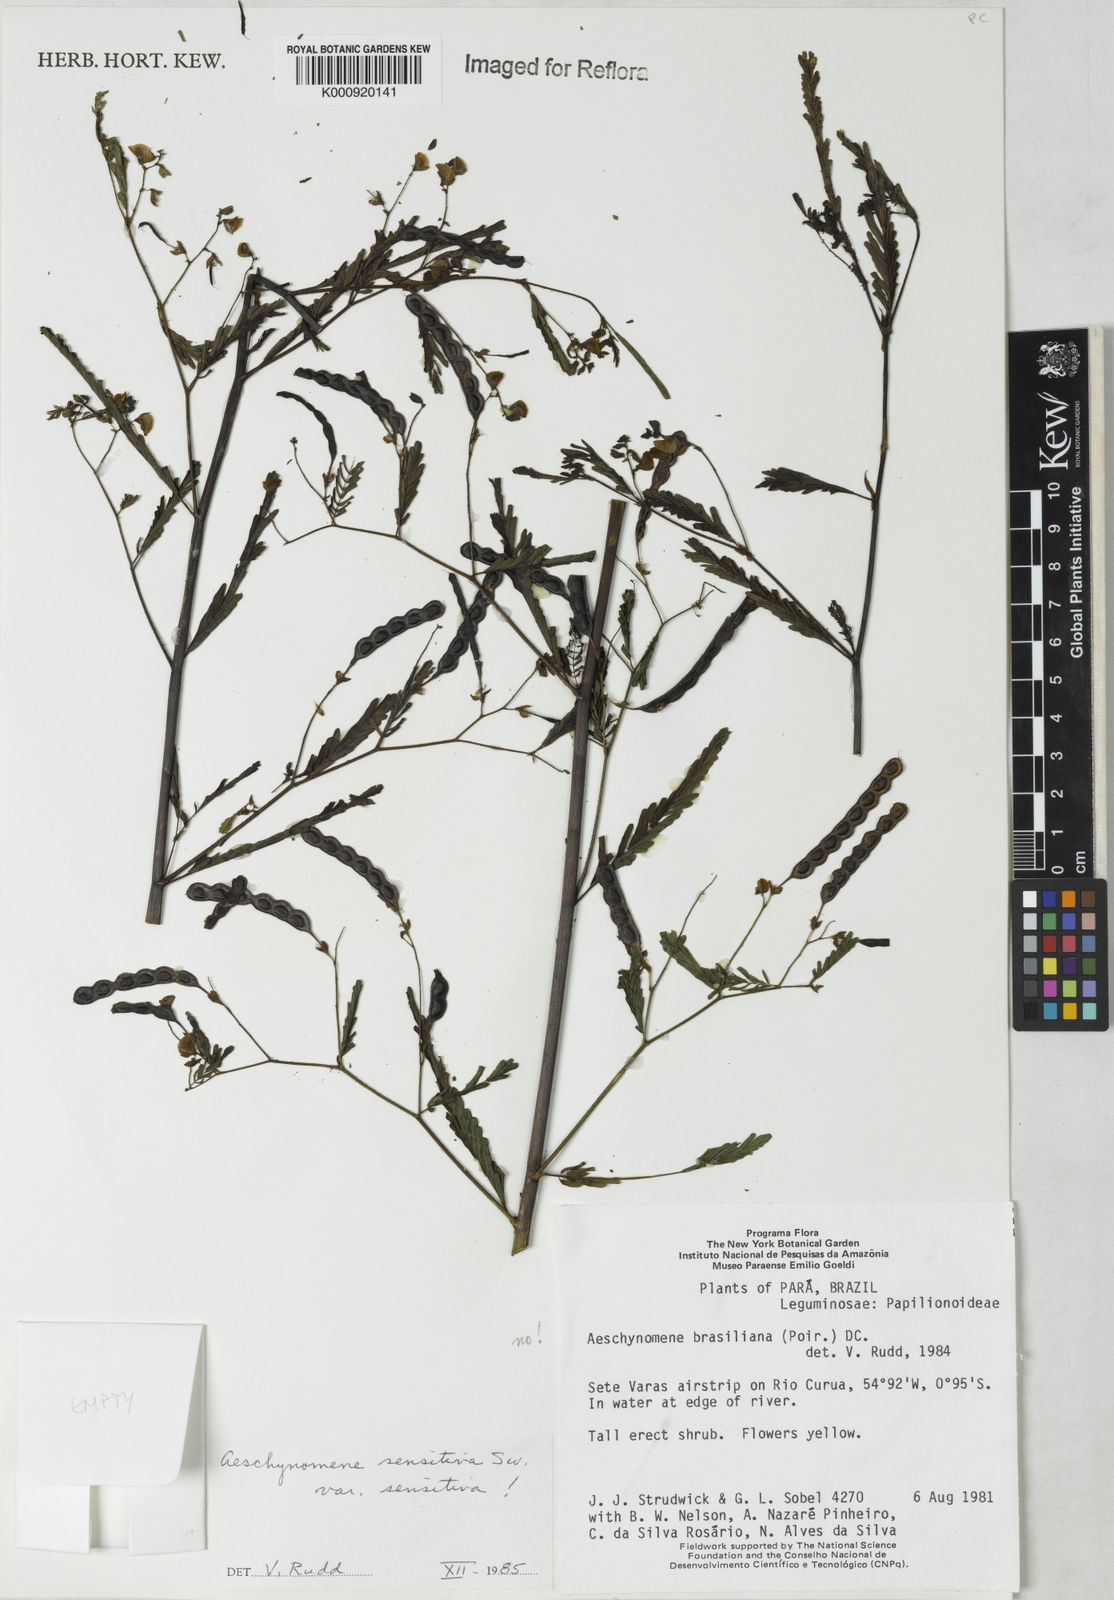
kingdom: Plantae
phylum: Tracheophyta
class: Magnoliopsida
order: Fabales
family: Fabaceae
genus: Aeschynomene
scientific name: Aeschynomene sensitiva
